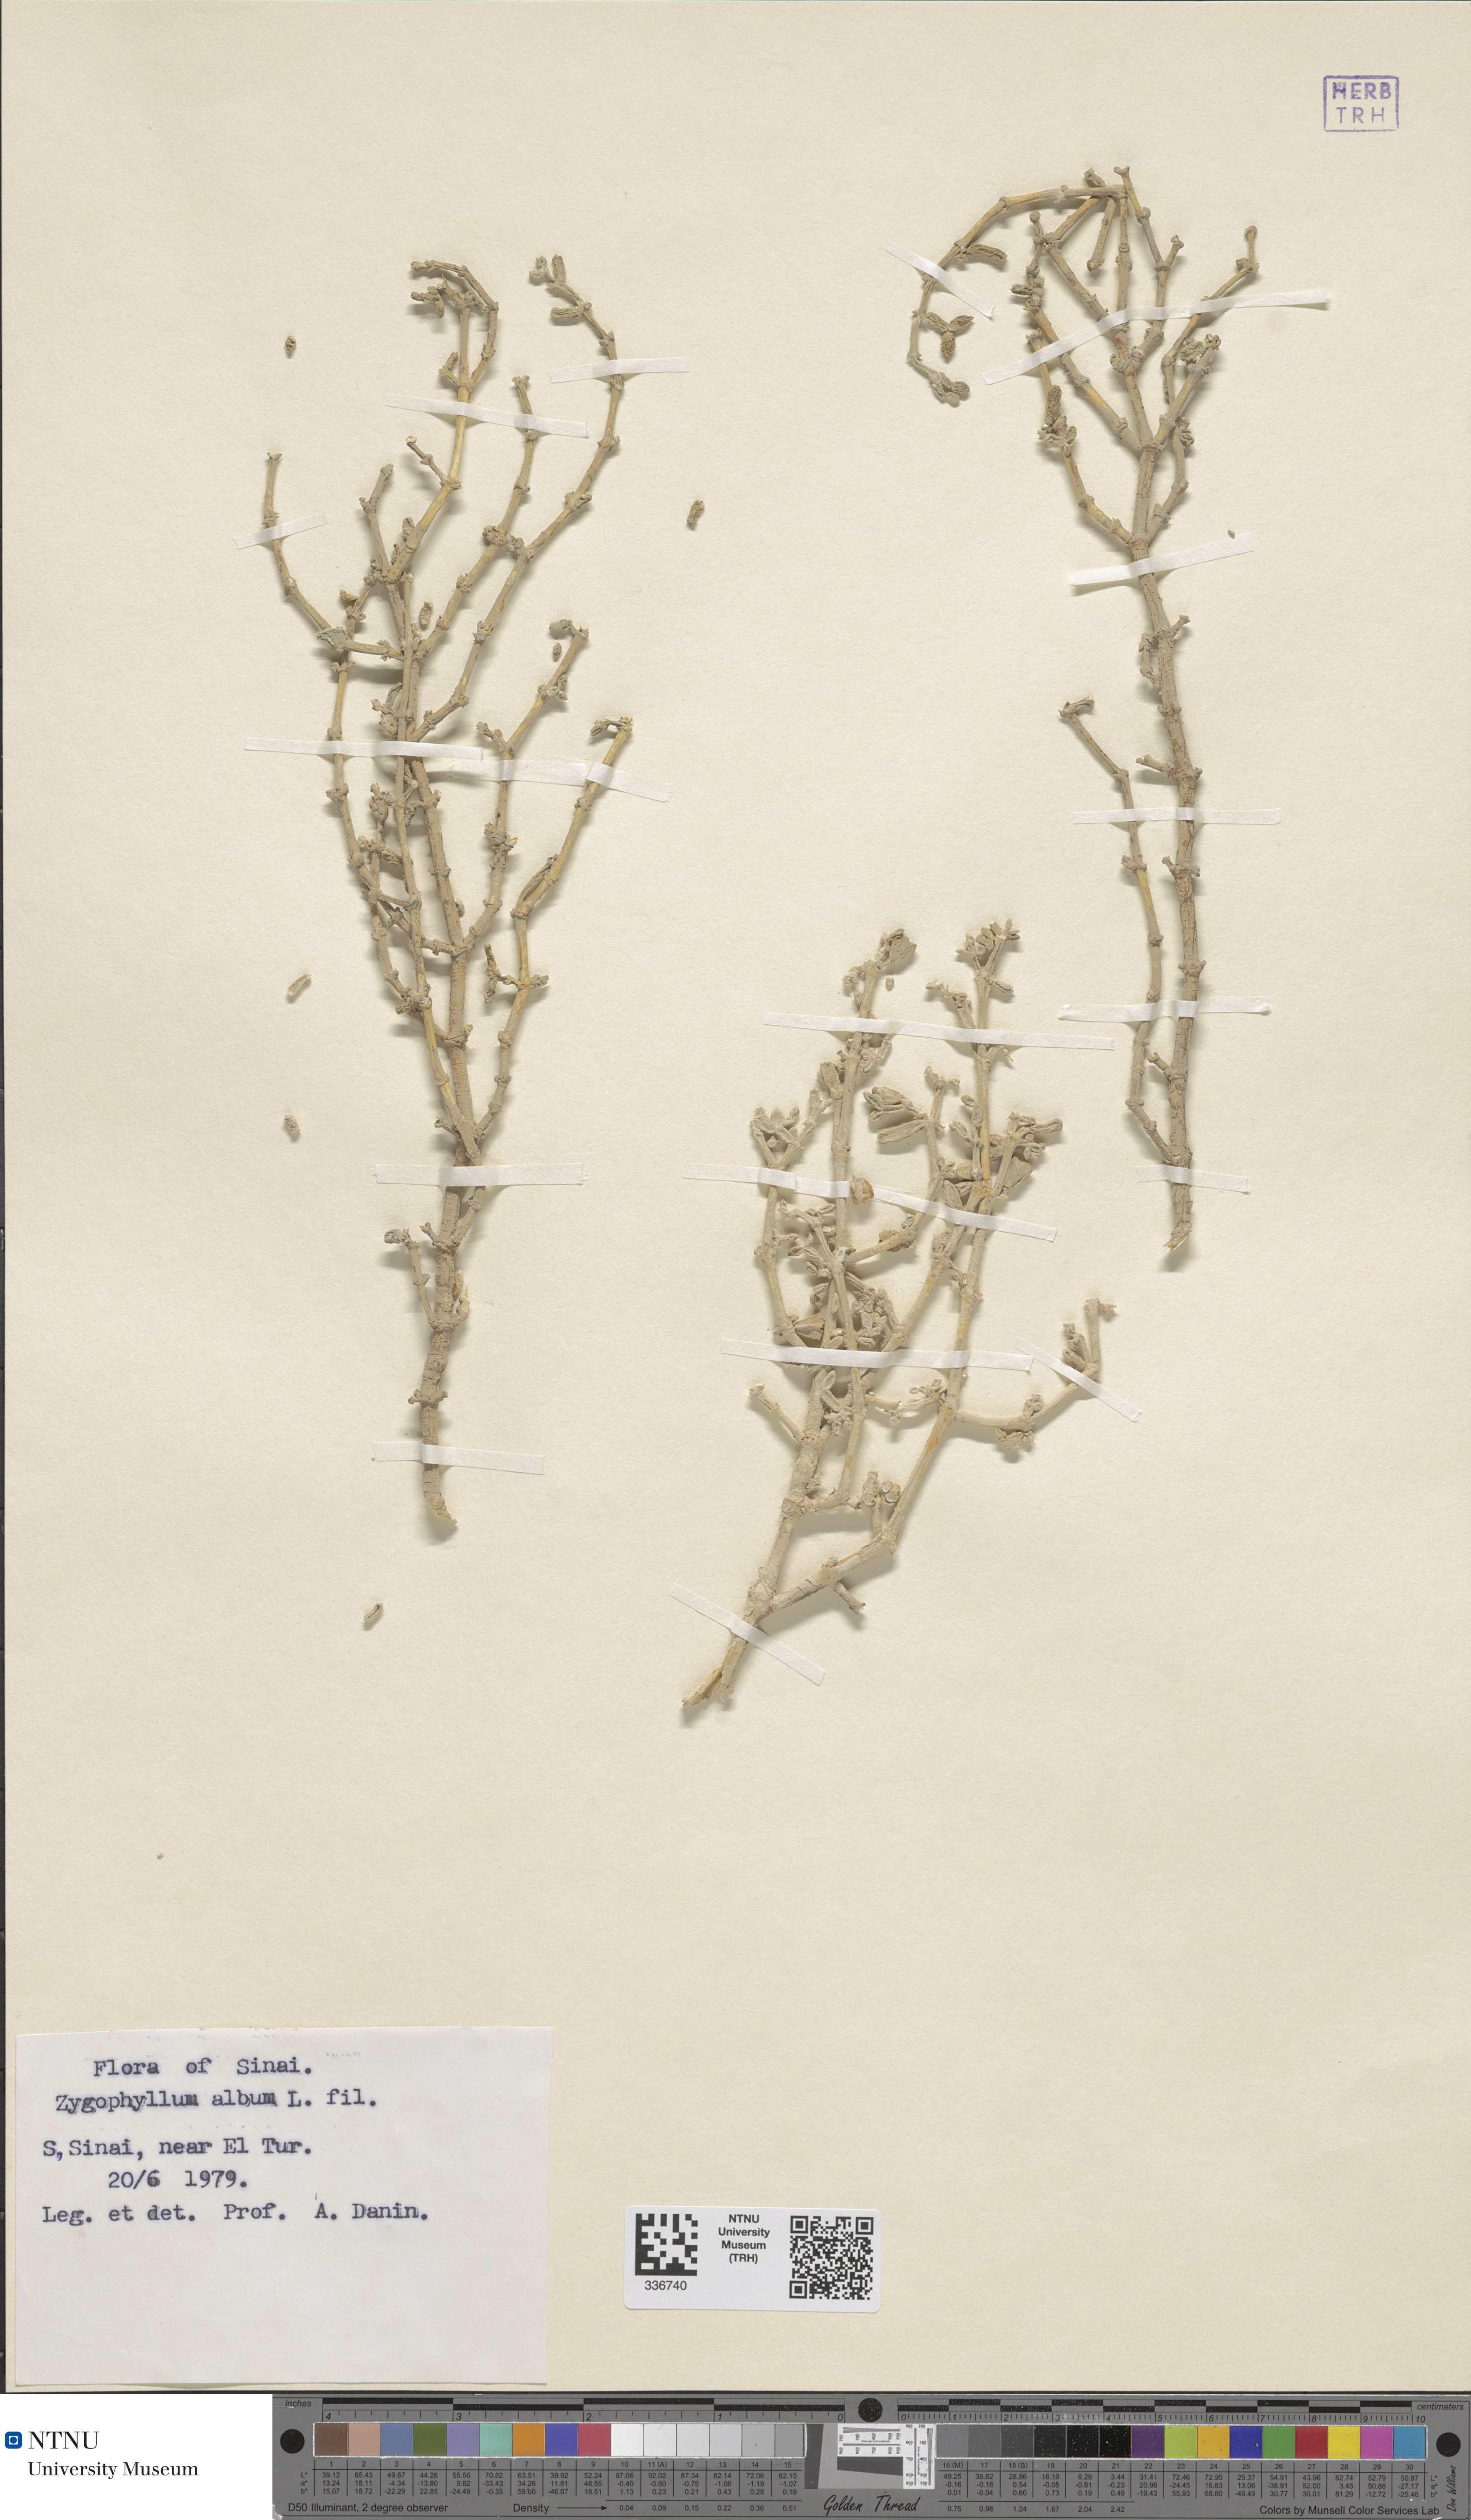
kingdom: Plantae
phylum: Tracheophyta
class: Magnoliopsida
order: Zygophyllales
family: Zygophyllaceae
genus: Tetraena
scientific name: Tetraena alba
